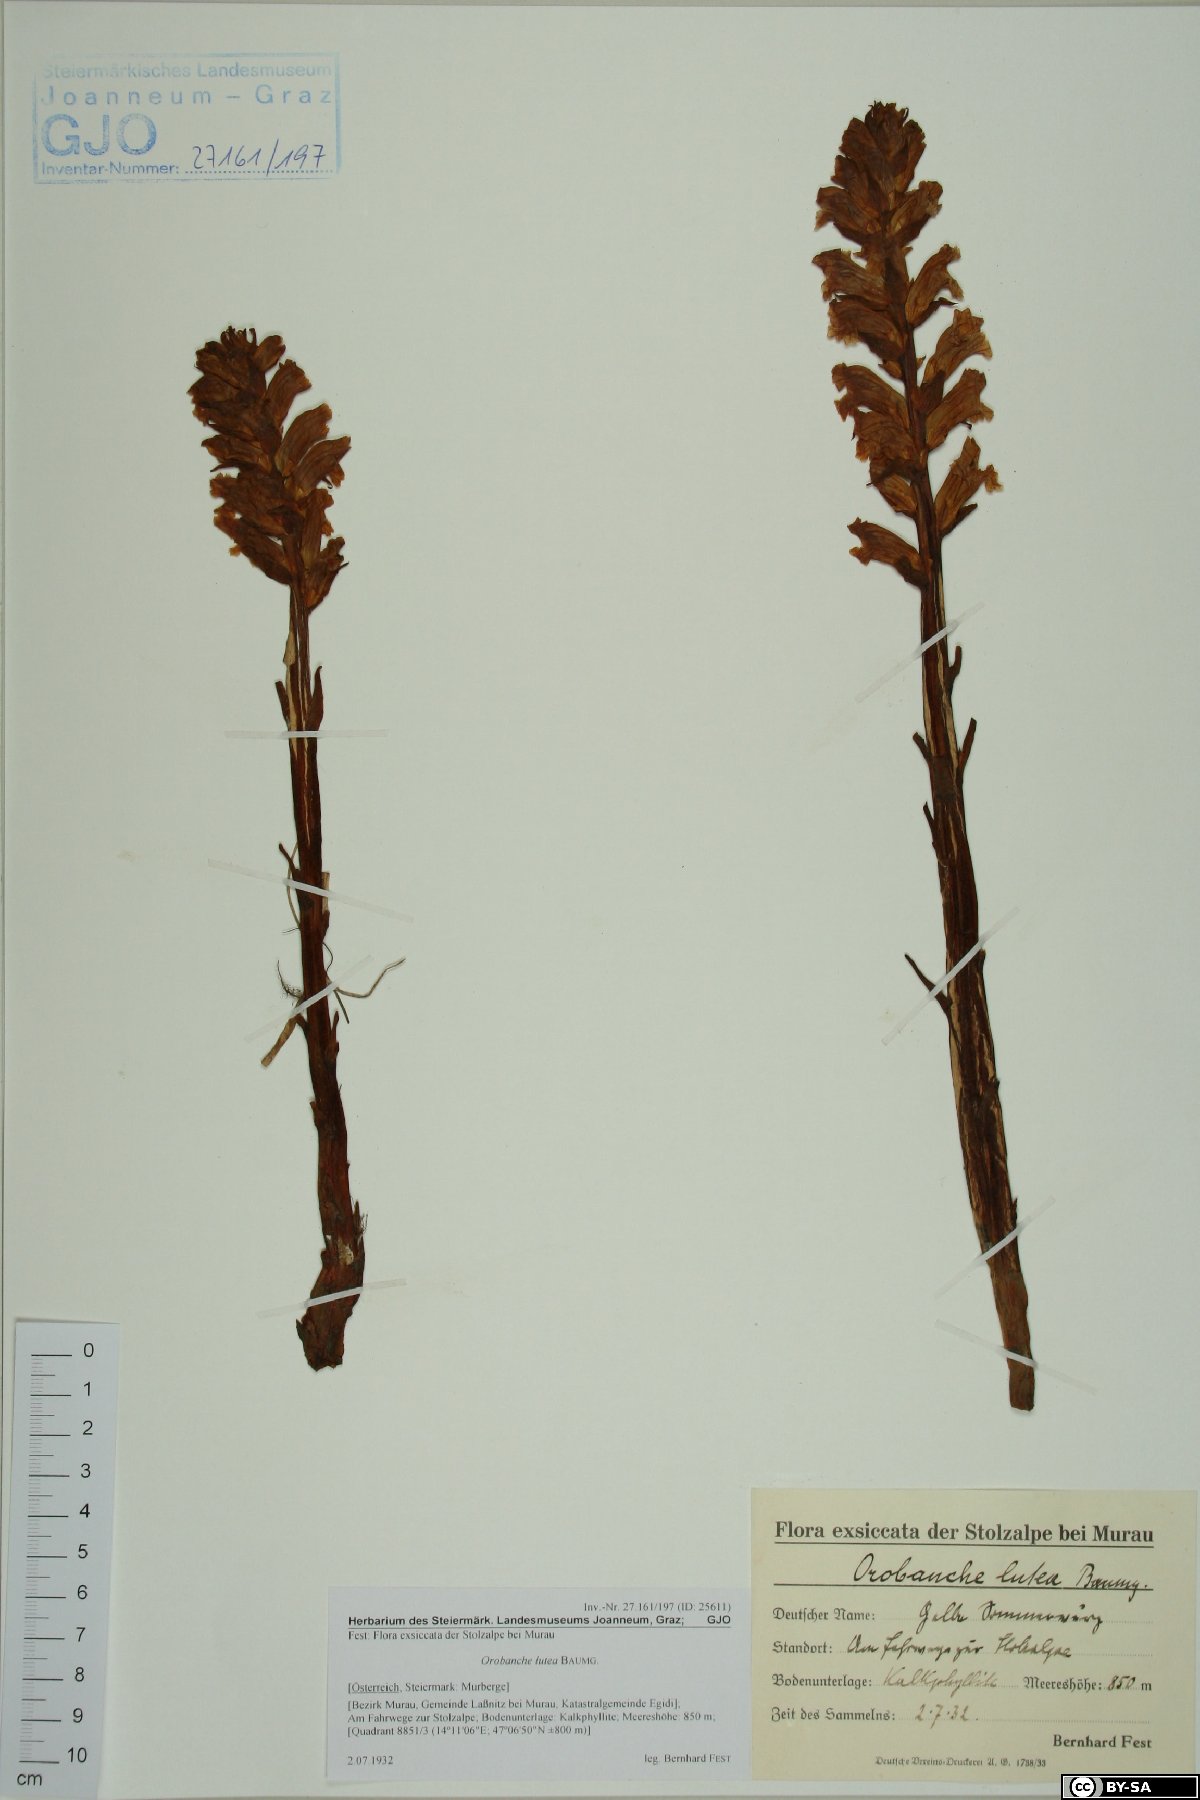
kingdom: Plantae
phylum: Tracheophyta
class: Magnoliopsida
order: Lamiales
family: Orobanchaceae
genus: Orobanche
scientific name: Orobanche lutea
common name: Yellow broomrape
